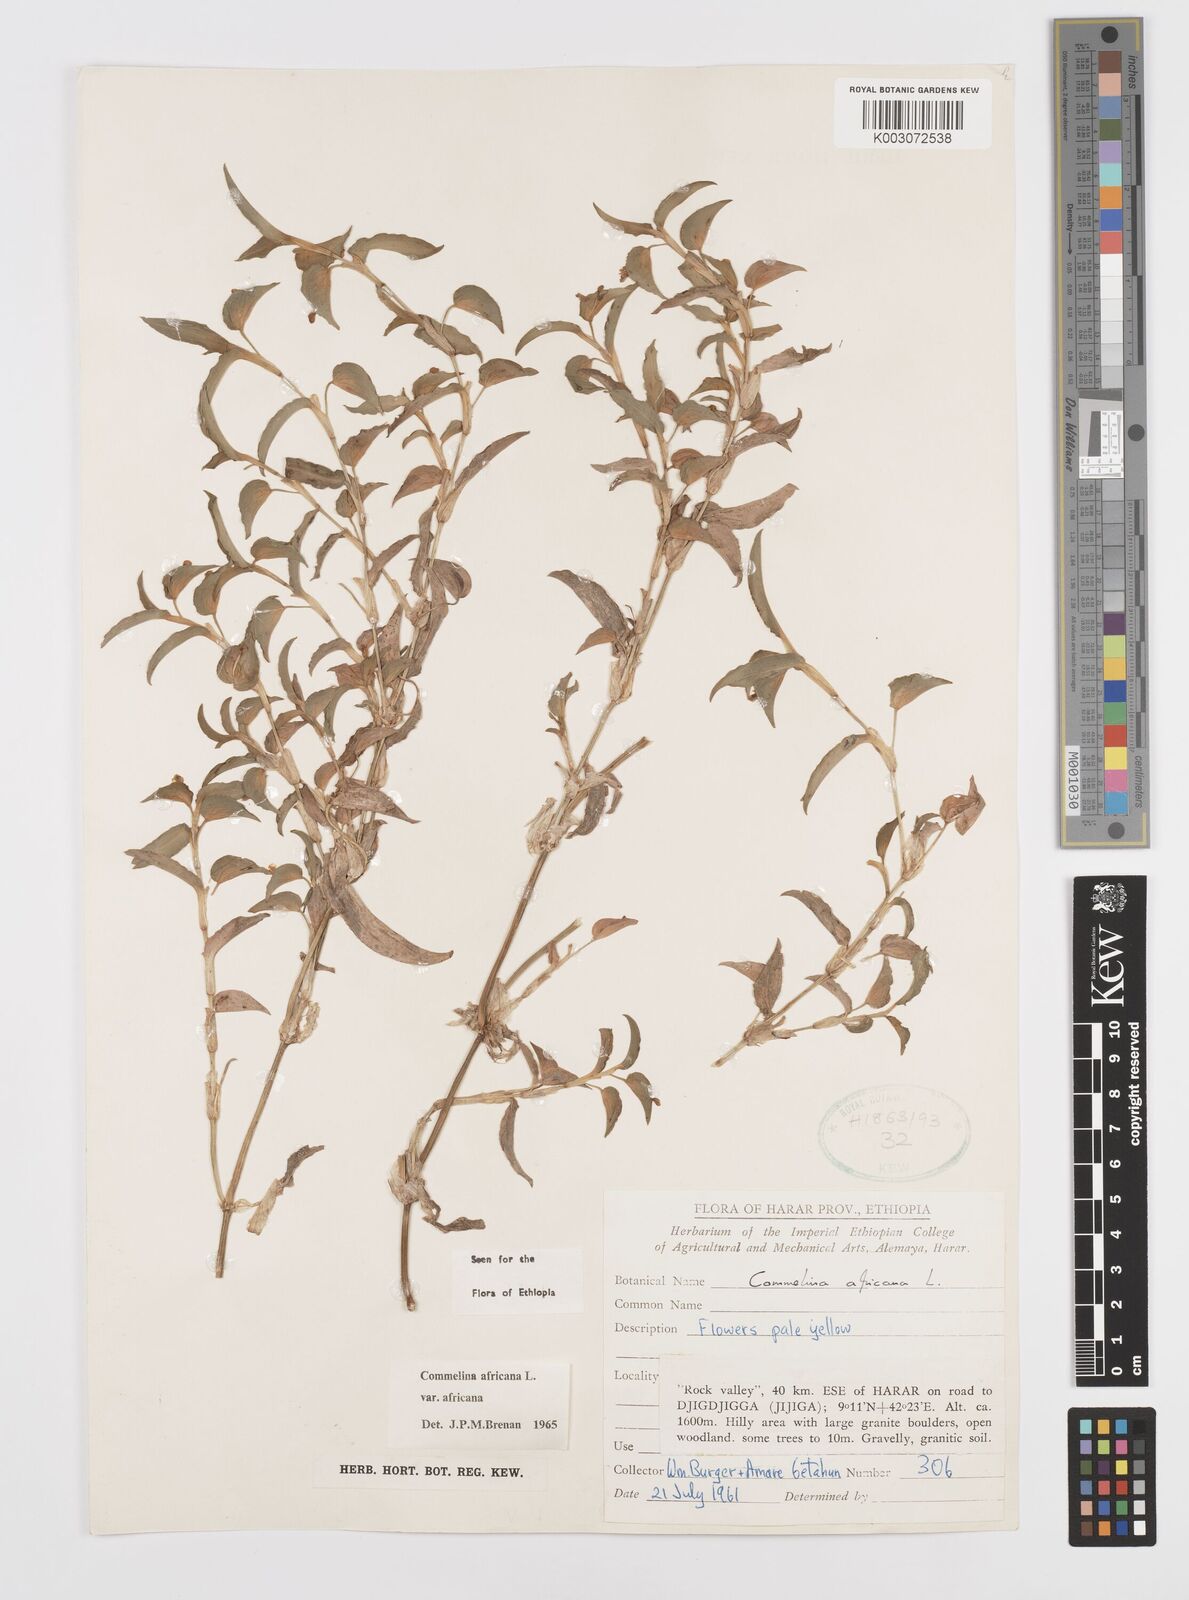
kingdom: Plantae
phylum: Tracheophyta
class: Liliopsida
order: Commelinales
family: Commelinaceae
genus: Commelina
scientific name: Commelina africana
